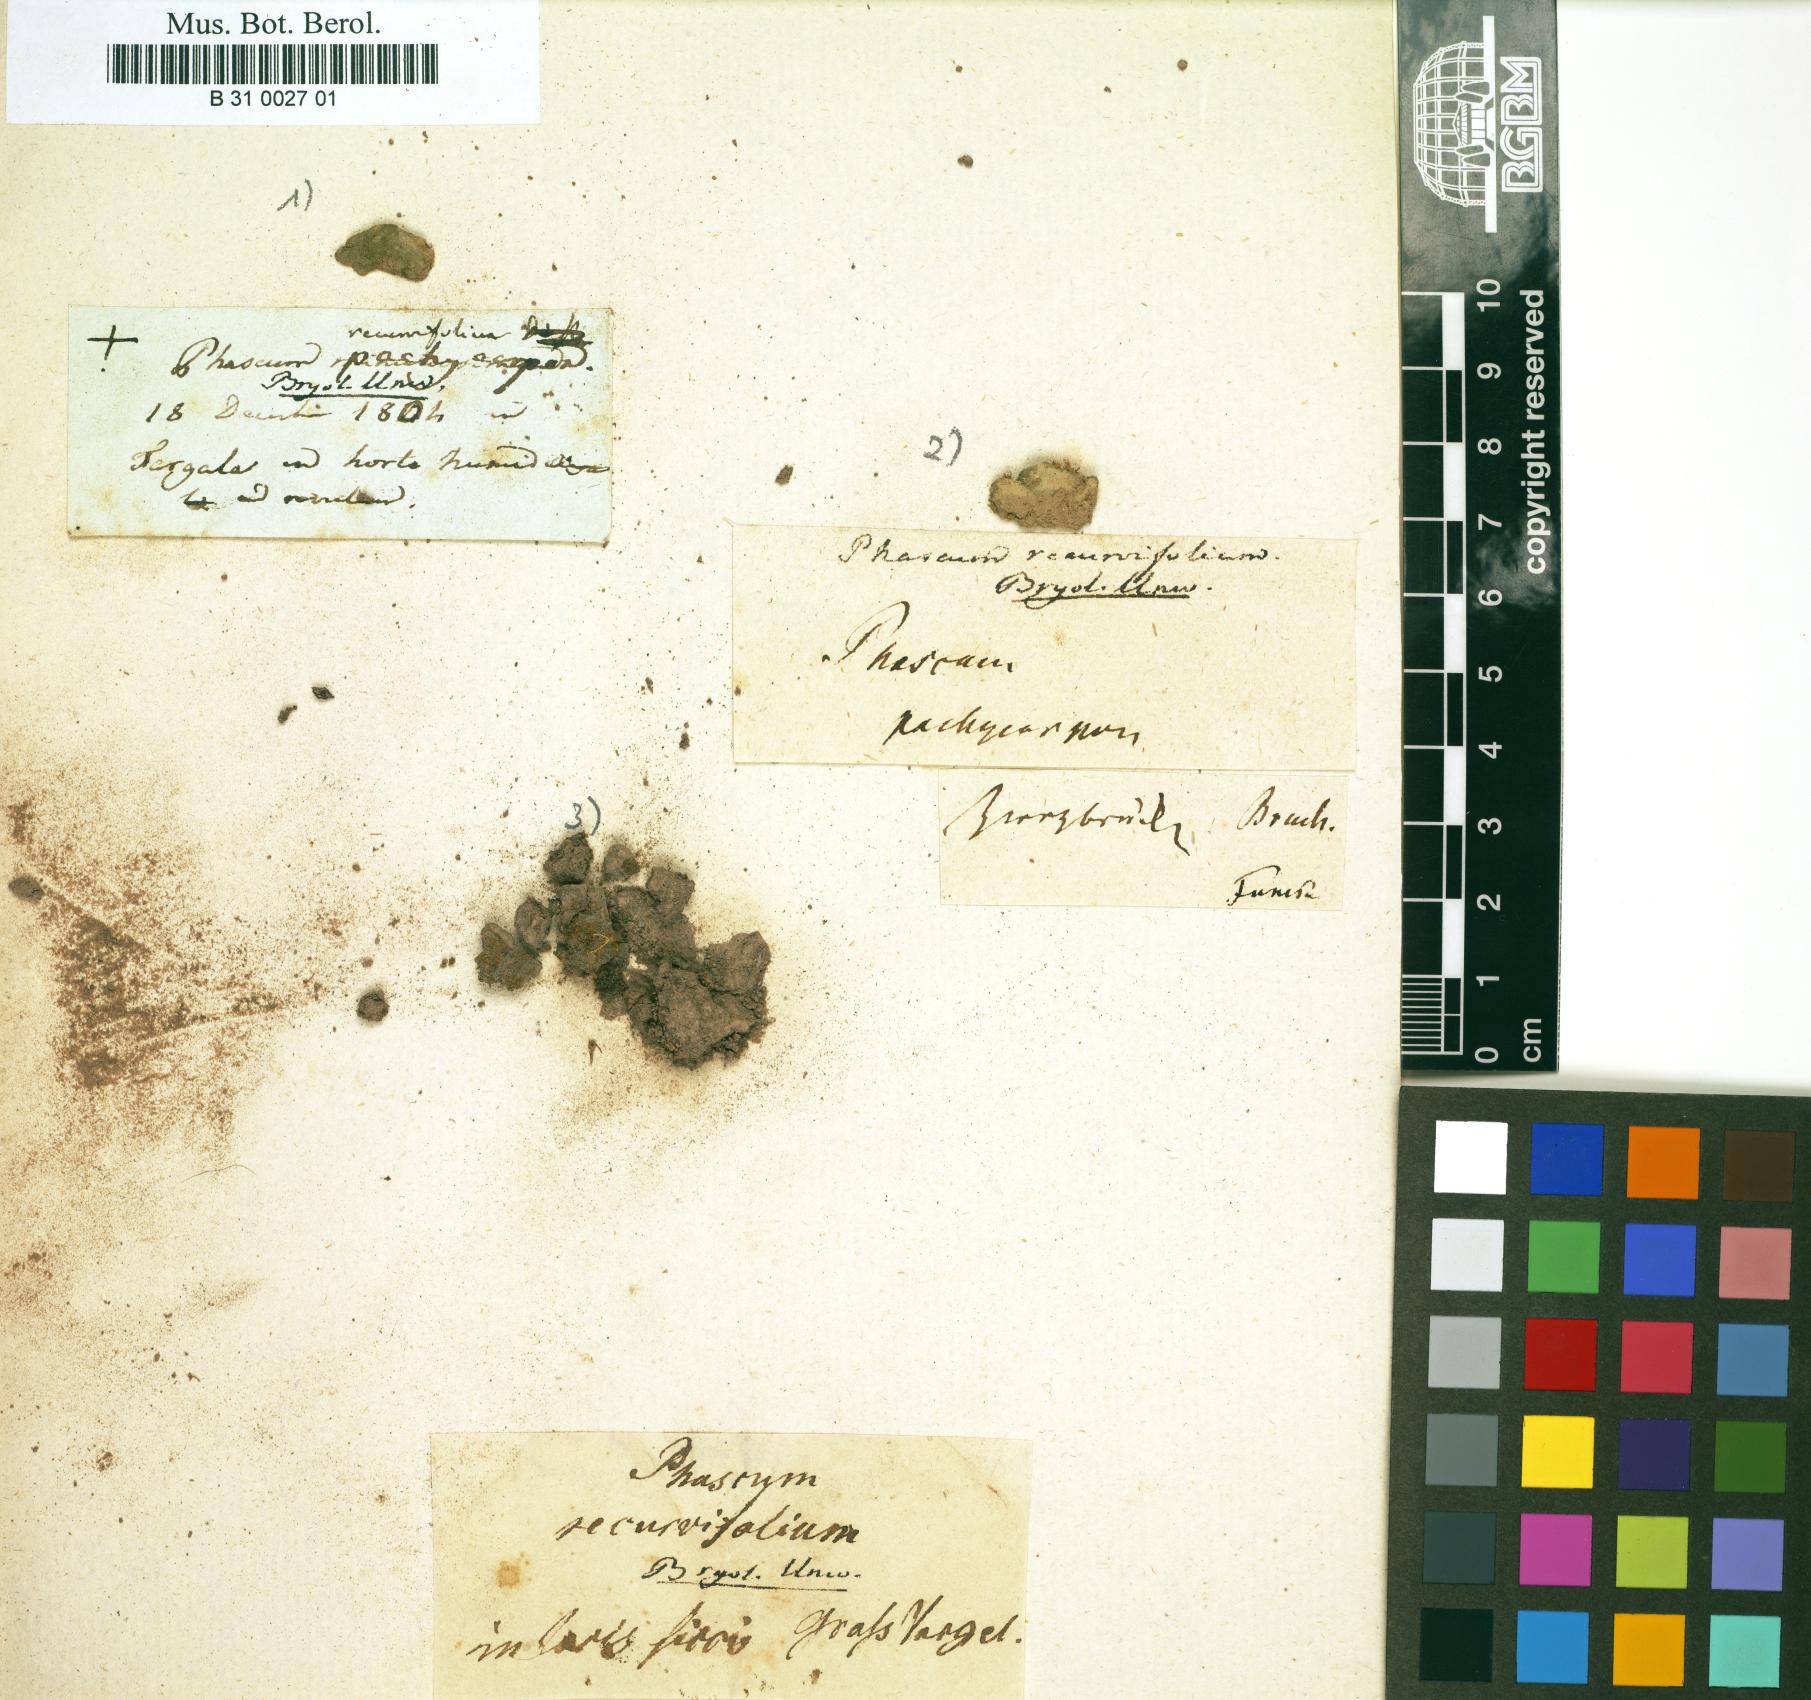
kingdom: Plantae
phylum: Bryophyta
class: Bryopsida
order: Pottiales
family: Ephemeraceae
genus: Ephemerum
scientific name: Ephemerum recurvifolium
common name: Strap-leaved earth-moss
